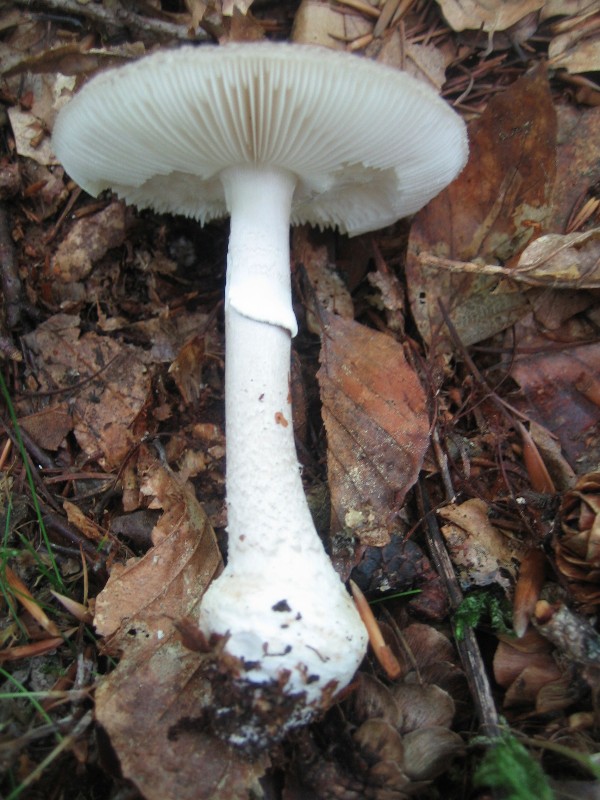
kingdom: Fungi
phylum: Basidiomycota
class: Agaricomycetes
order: Agaricales
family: Amanitaceae
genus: Amanita
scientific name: Amanita
